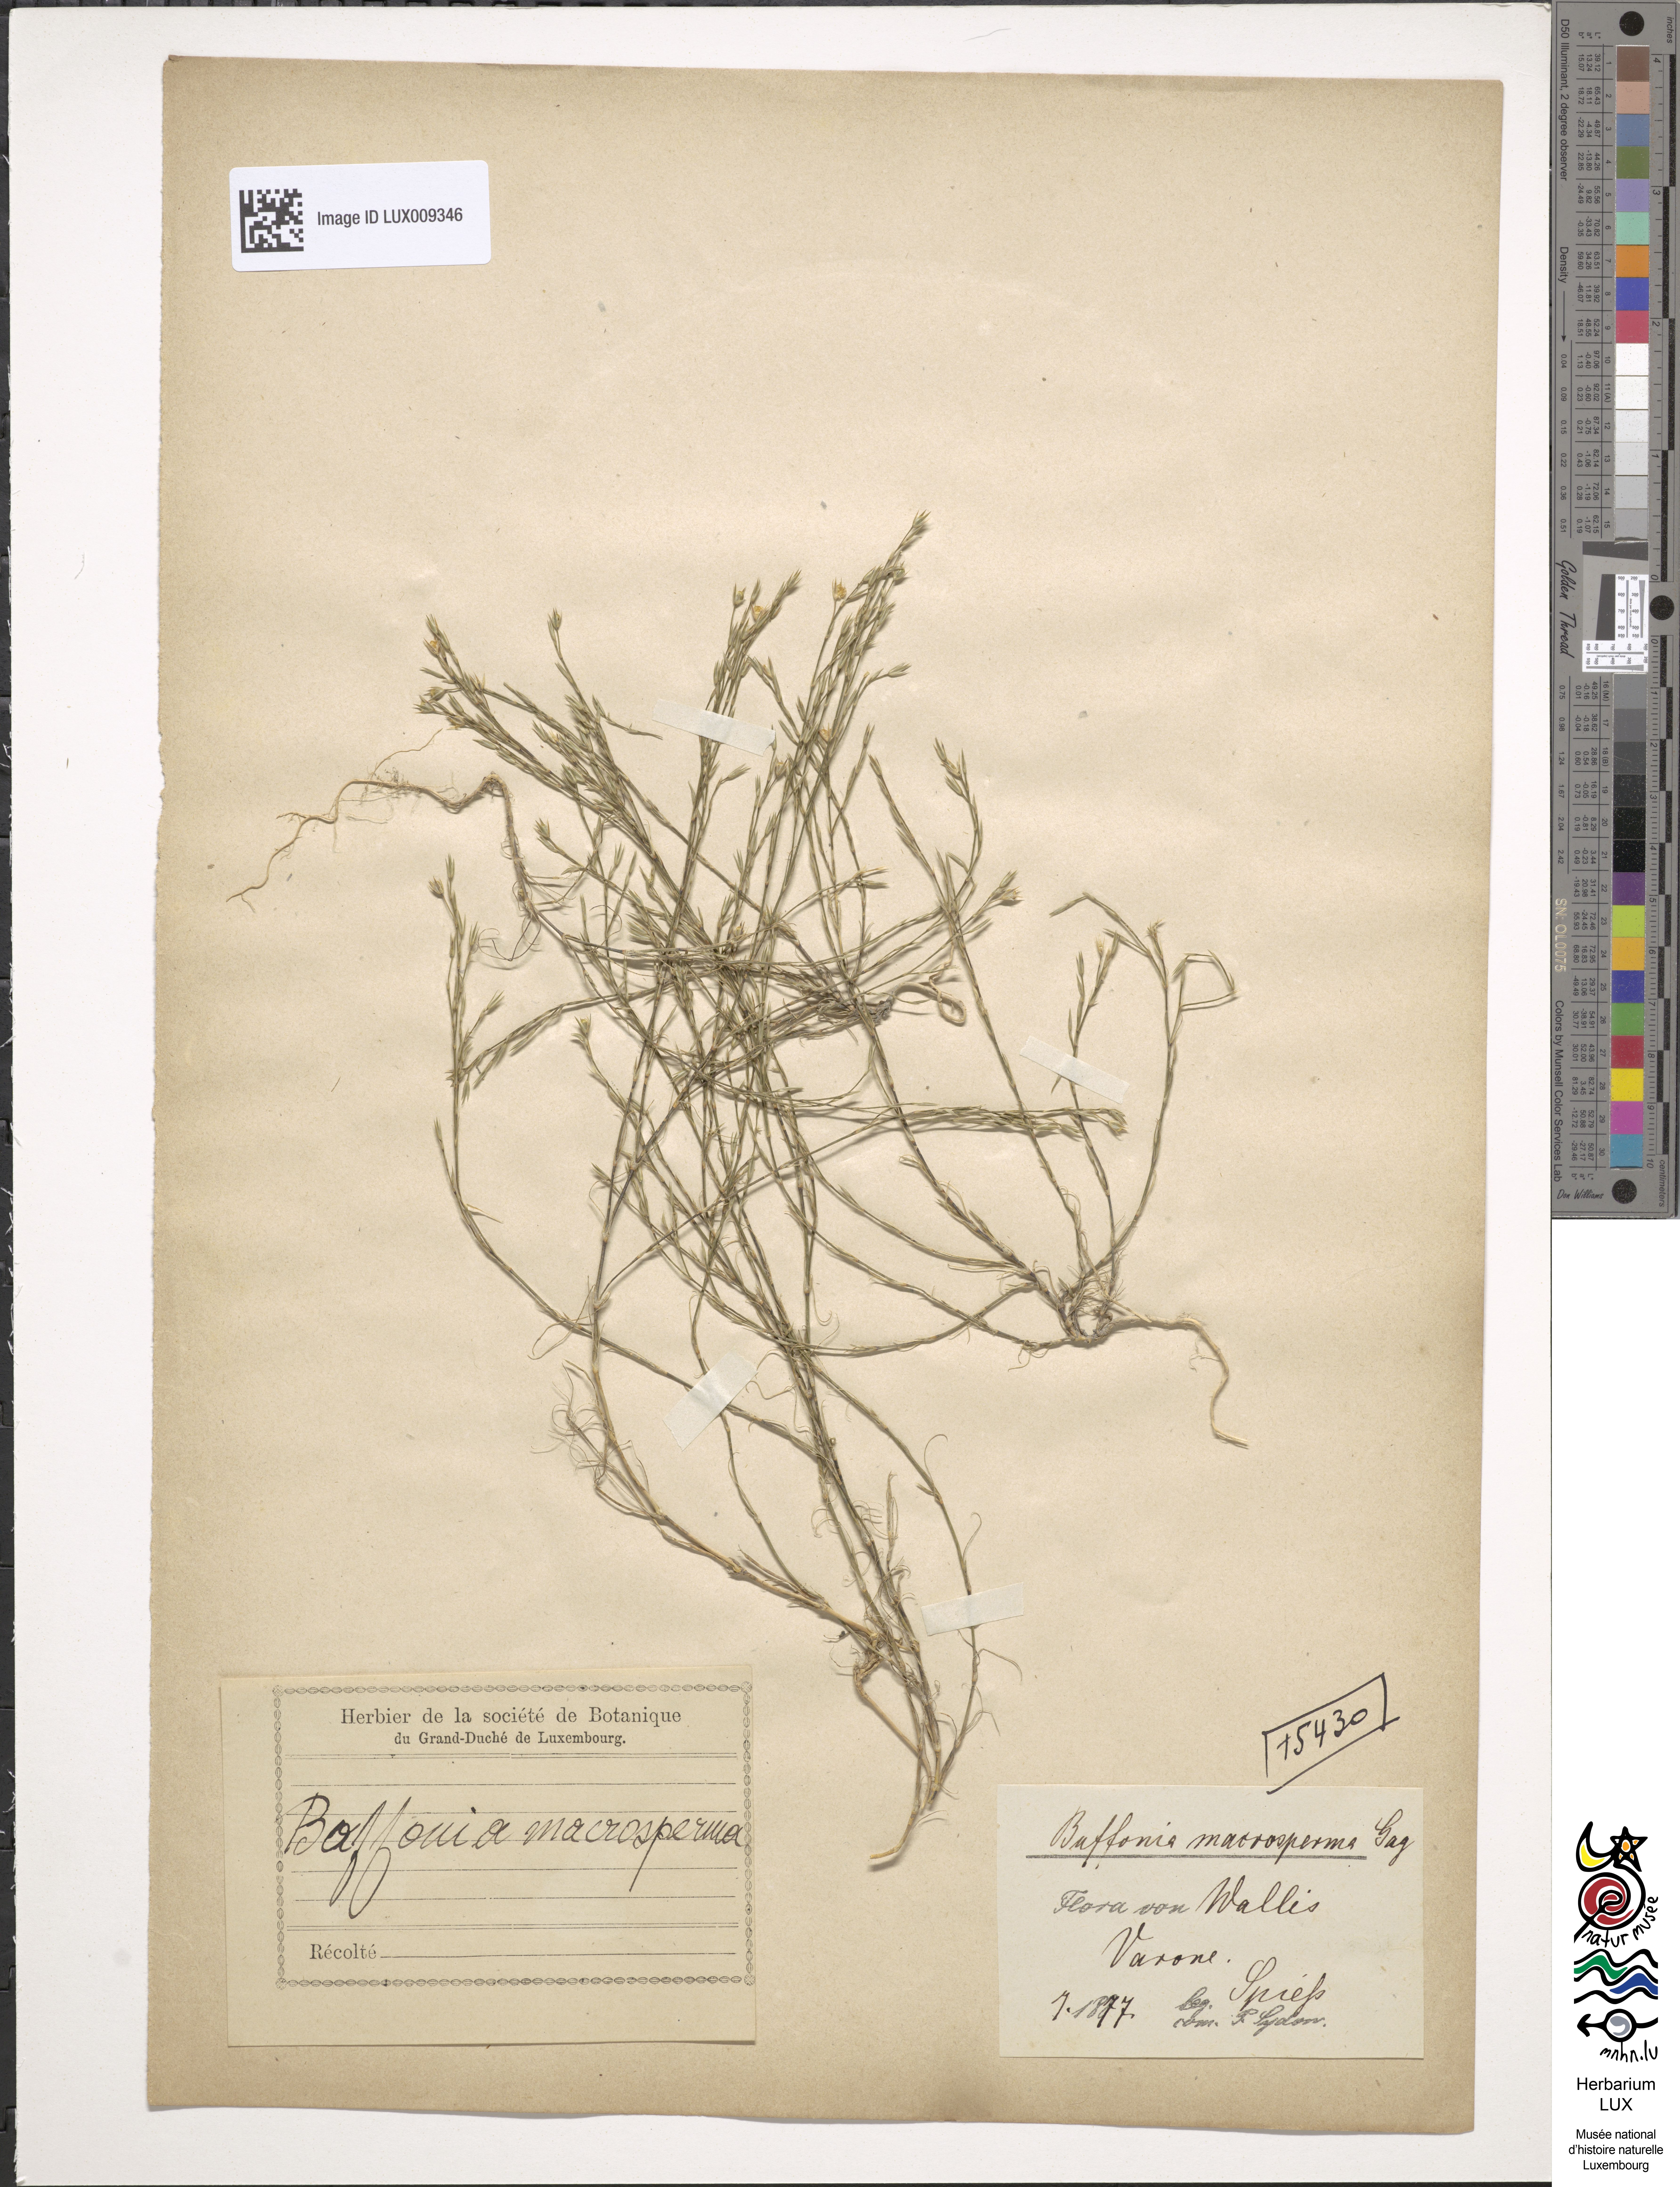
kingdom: Plantae
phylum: Tracheophyta
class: Magnoliopsida
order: Caryophyllales
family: Caryophyllaceae
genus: Bufonia
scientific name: Bufonia paniculata
